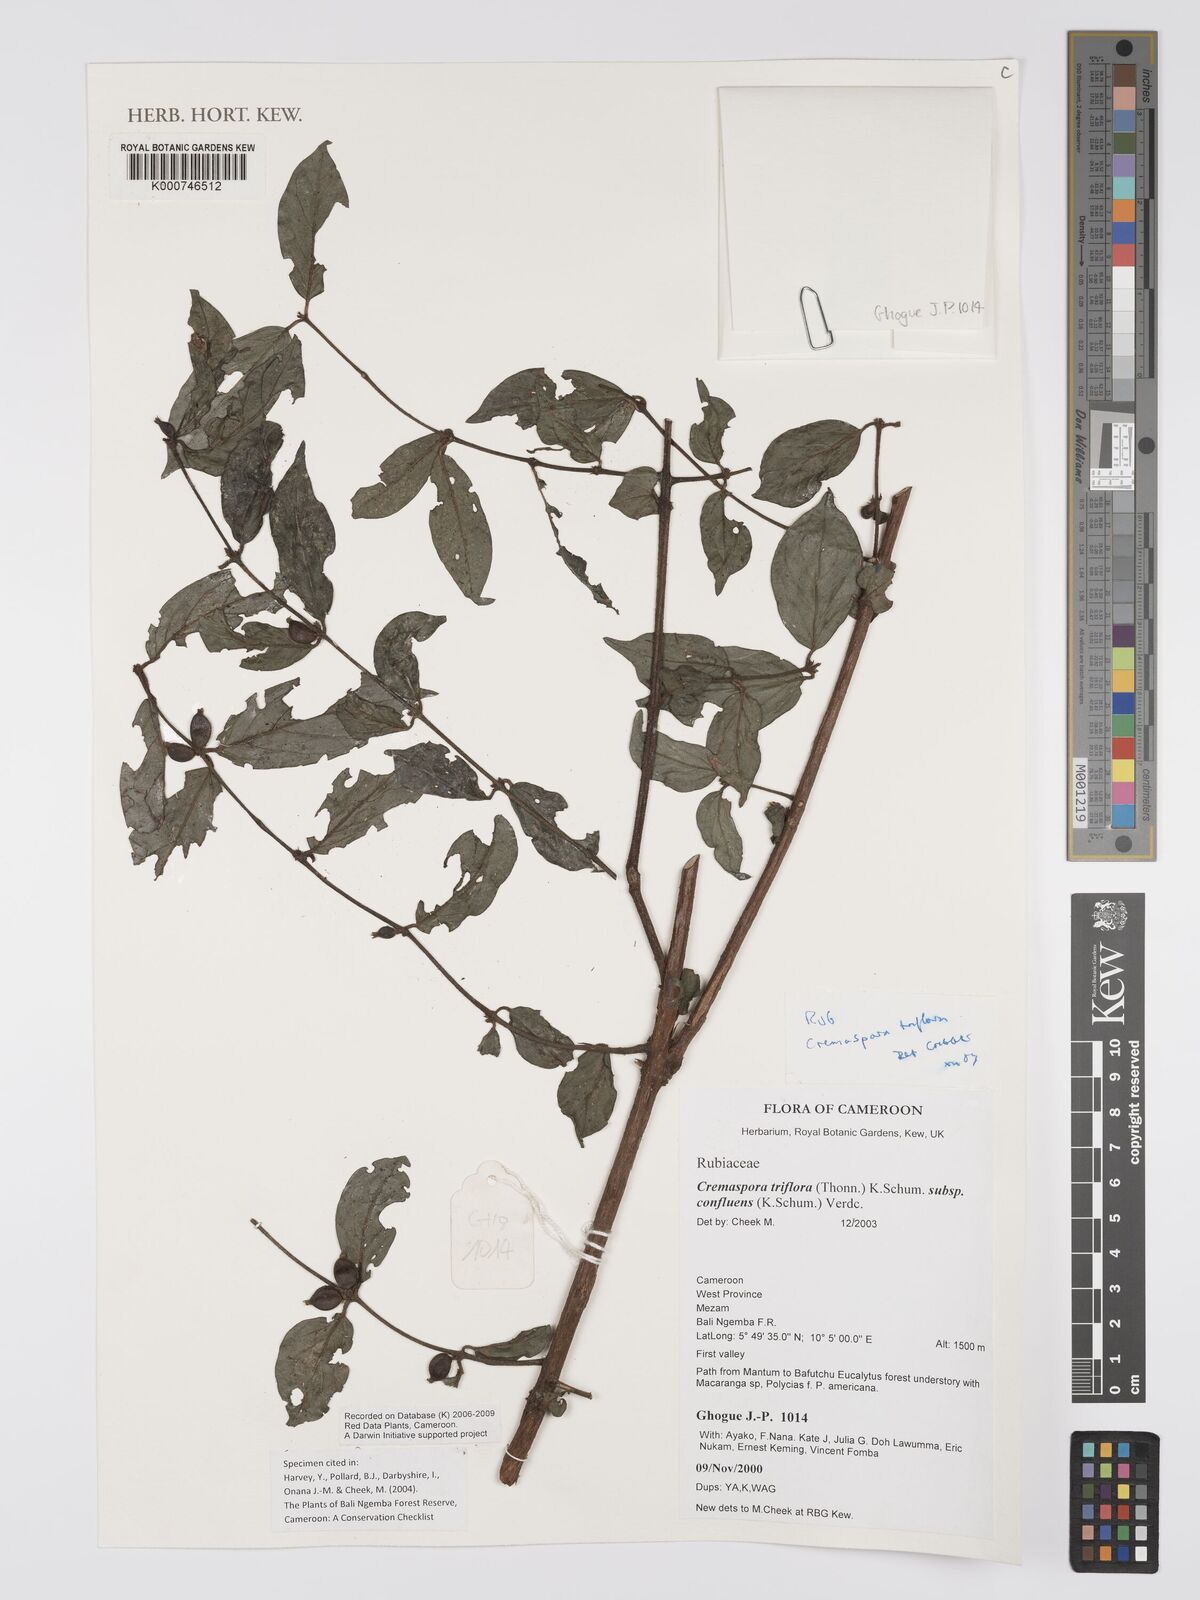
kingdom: Plantae
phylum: Tracheophyta
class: Magnoliopsida
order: Gentianales
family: Rubiaceae
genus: Cremaspora
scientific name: Cremaspora triflora
